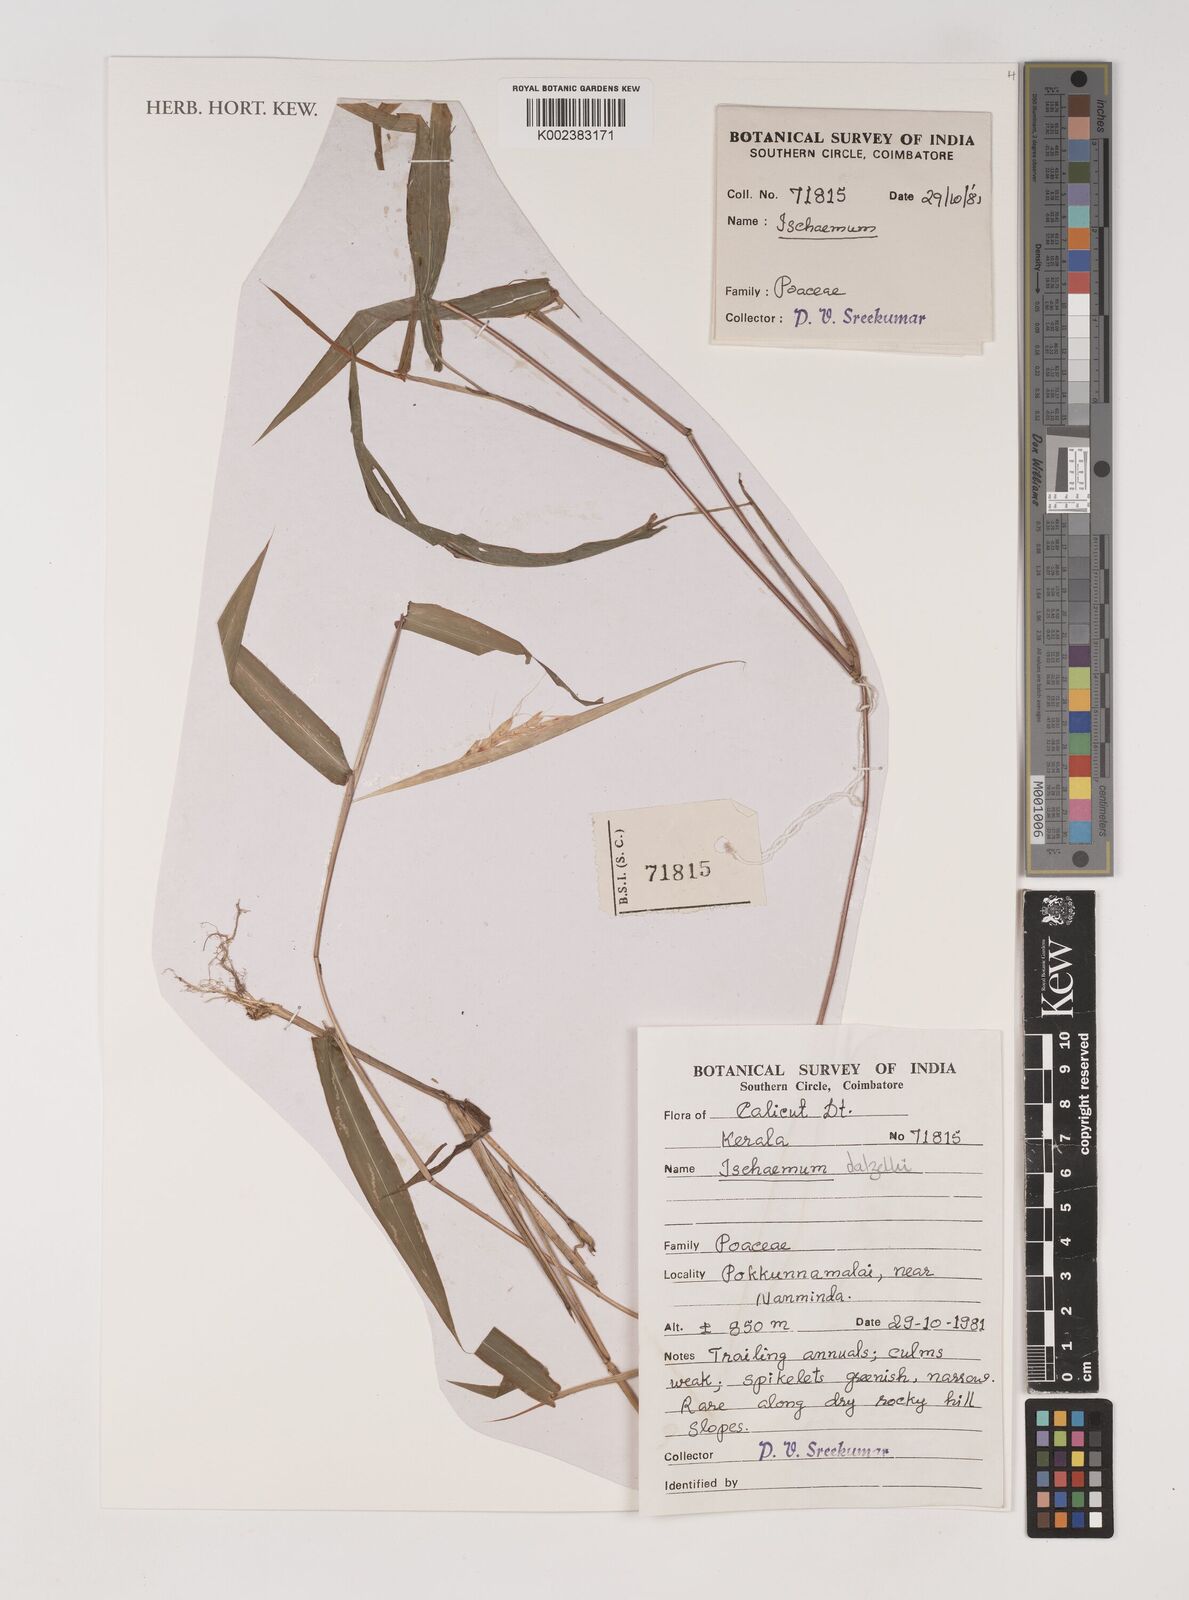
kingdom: Plantae
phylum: Tracheophyta
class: Liliopsida
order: Poales
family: Poaceae
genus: Ischaemum
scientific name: Ischaemum dalzellii
